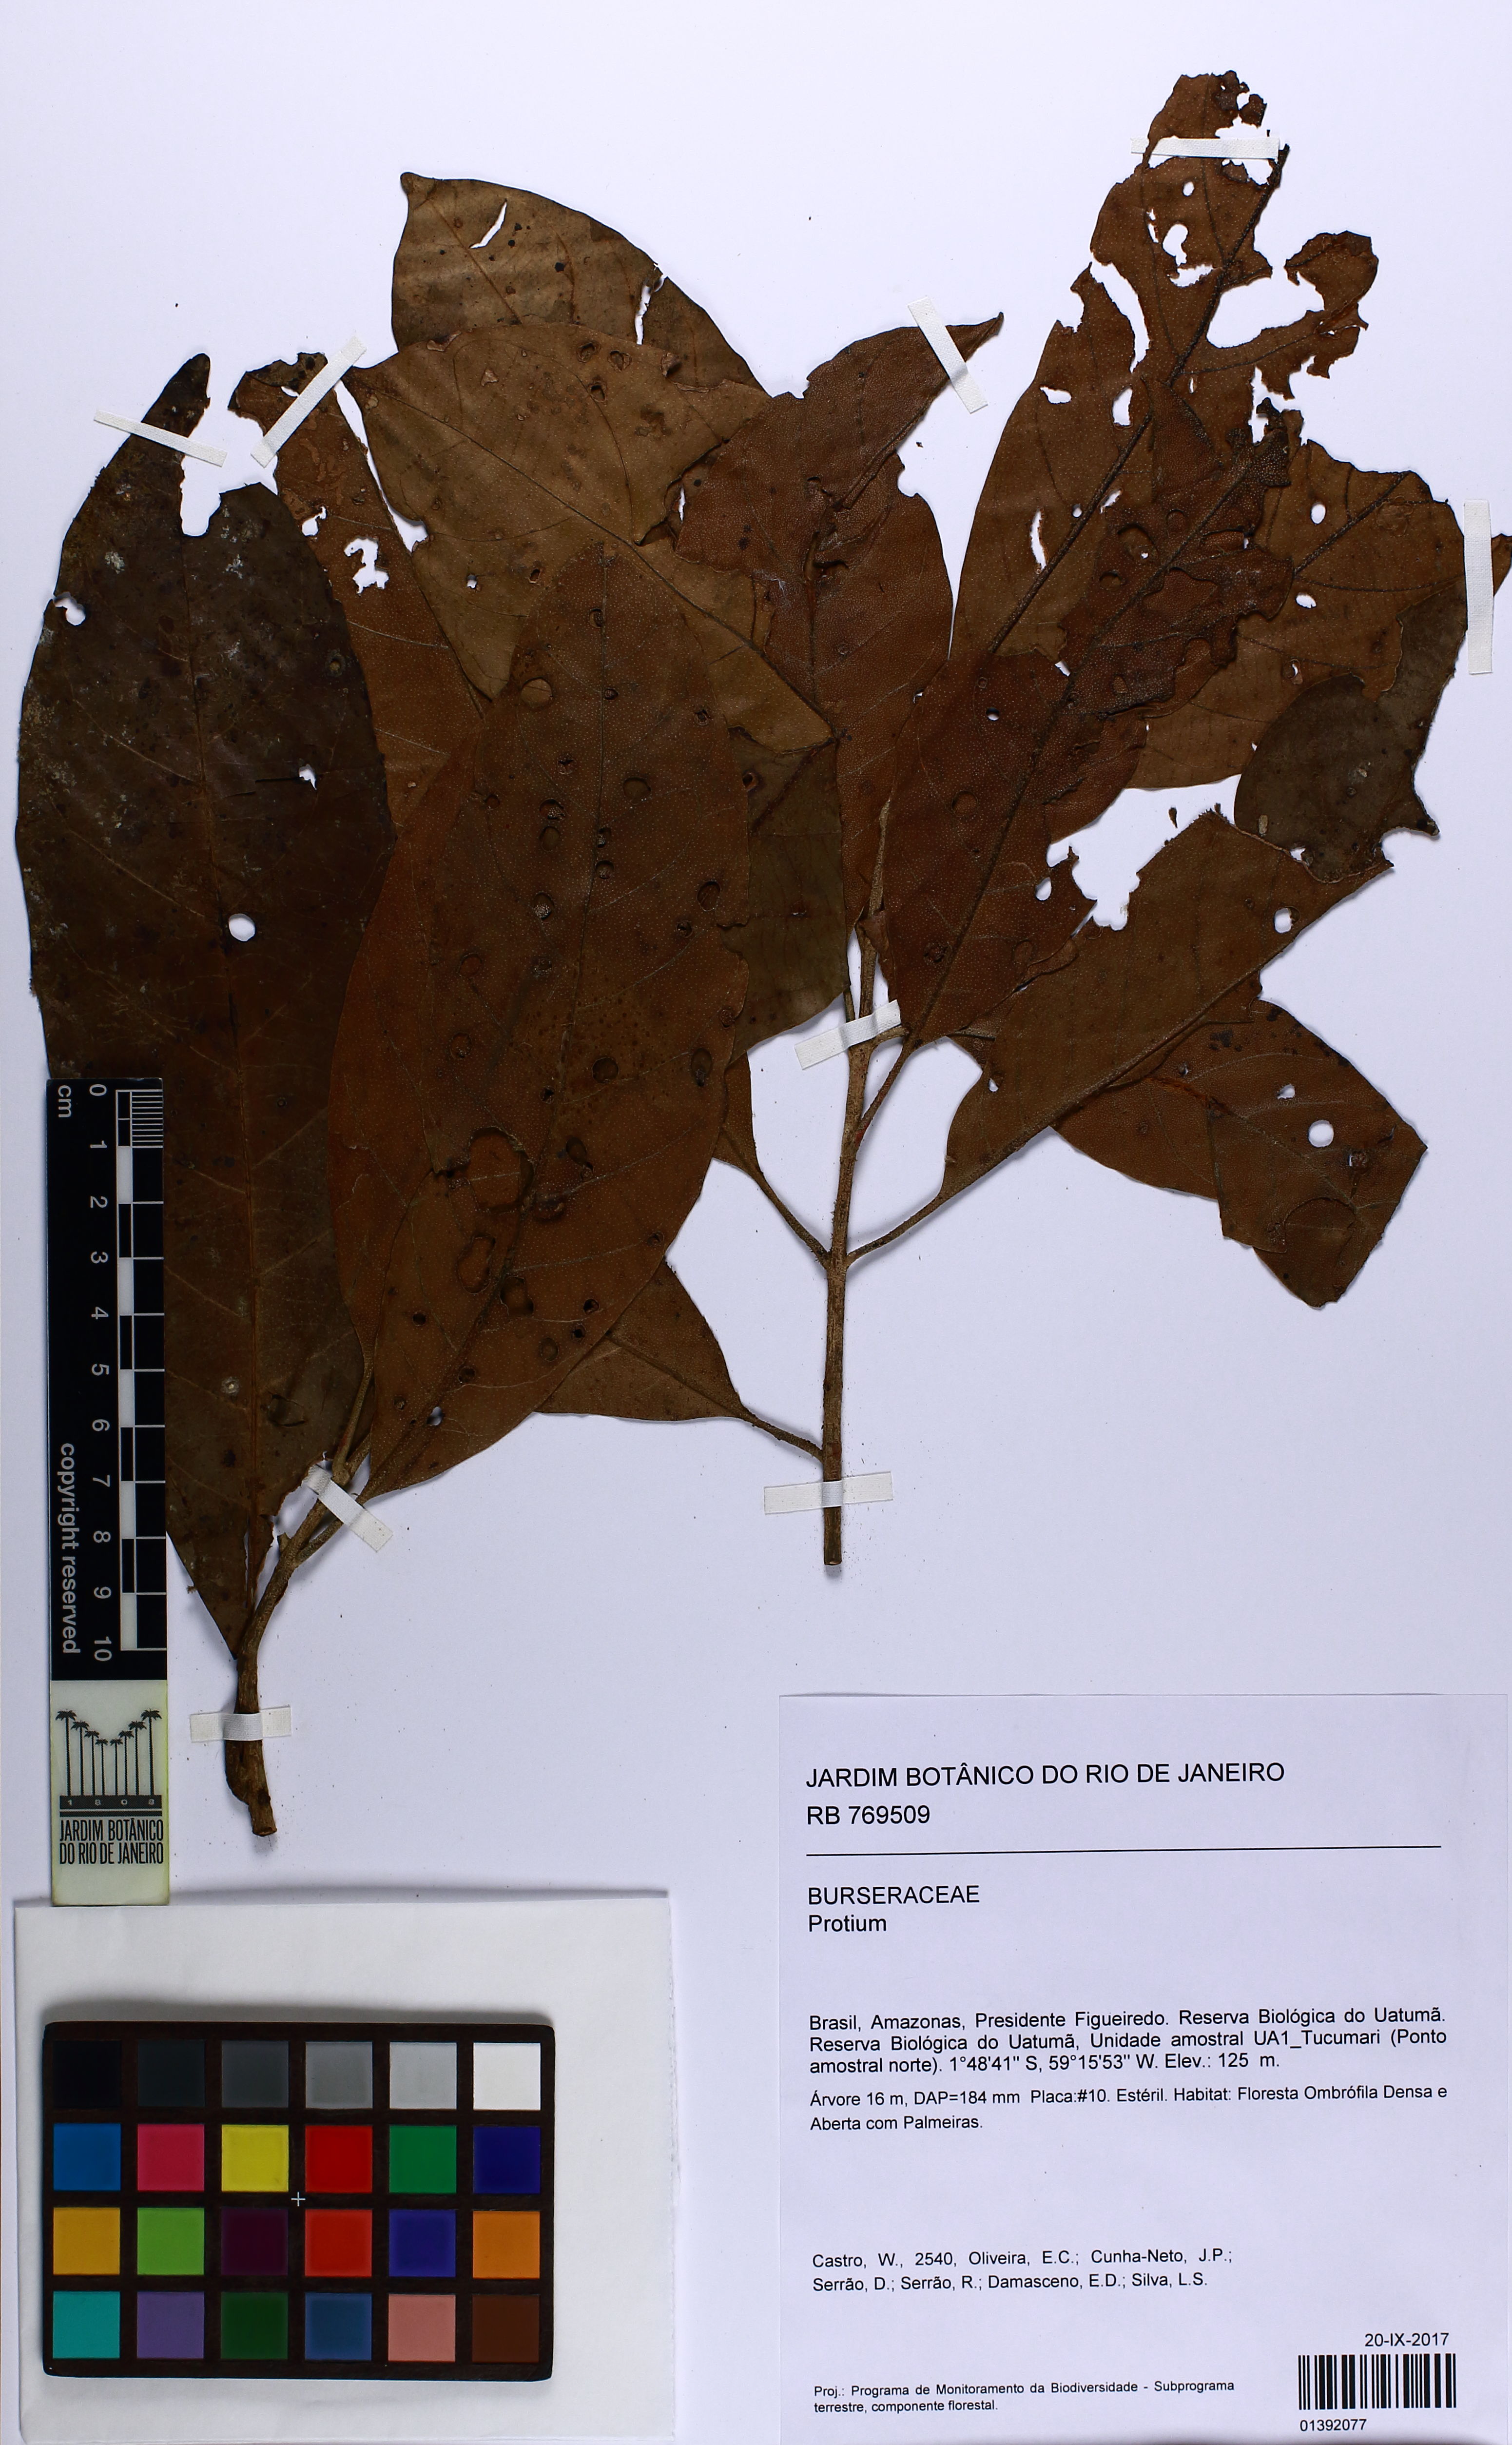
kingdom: Plantae
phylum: Tracheophyta
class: Magnoliopsida
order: Laurales
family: Siparunaceae
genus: Siparuna
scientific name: Siparuna
